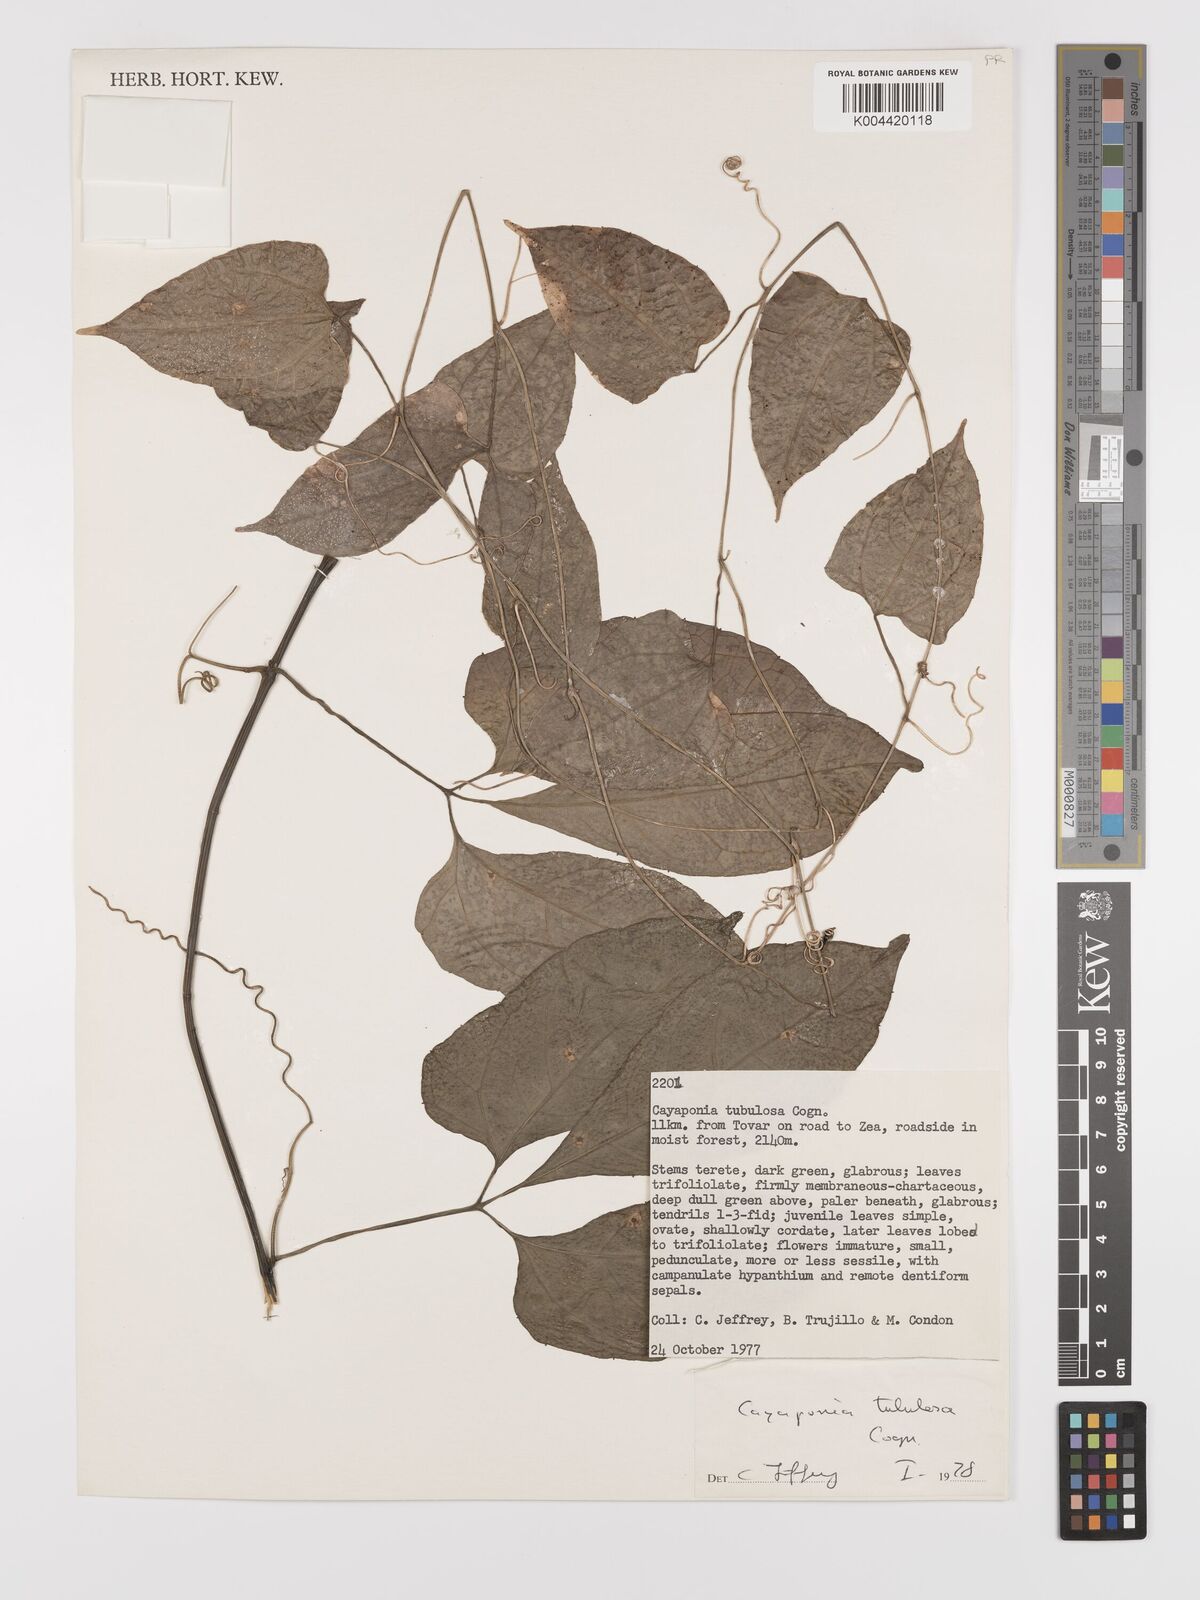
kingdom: Plantae
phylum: Tracheophyta
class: Magnoliopsida
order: Cucurbitales
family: Cucurbitaceae
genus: Cayaponia
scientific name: Cayaponia tubulosa
